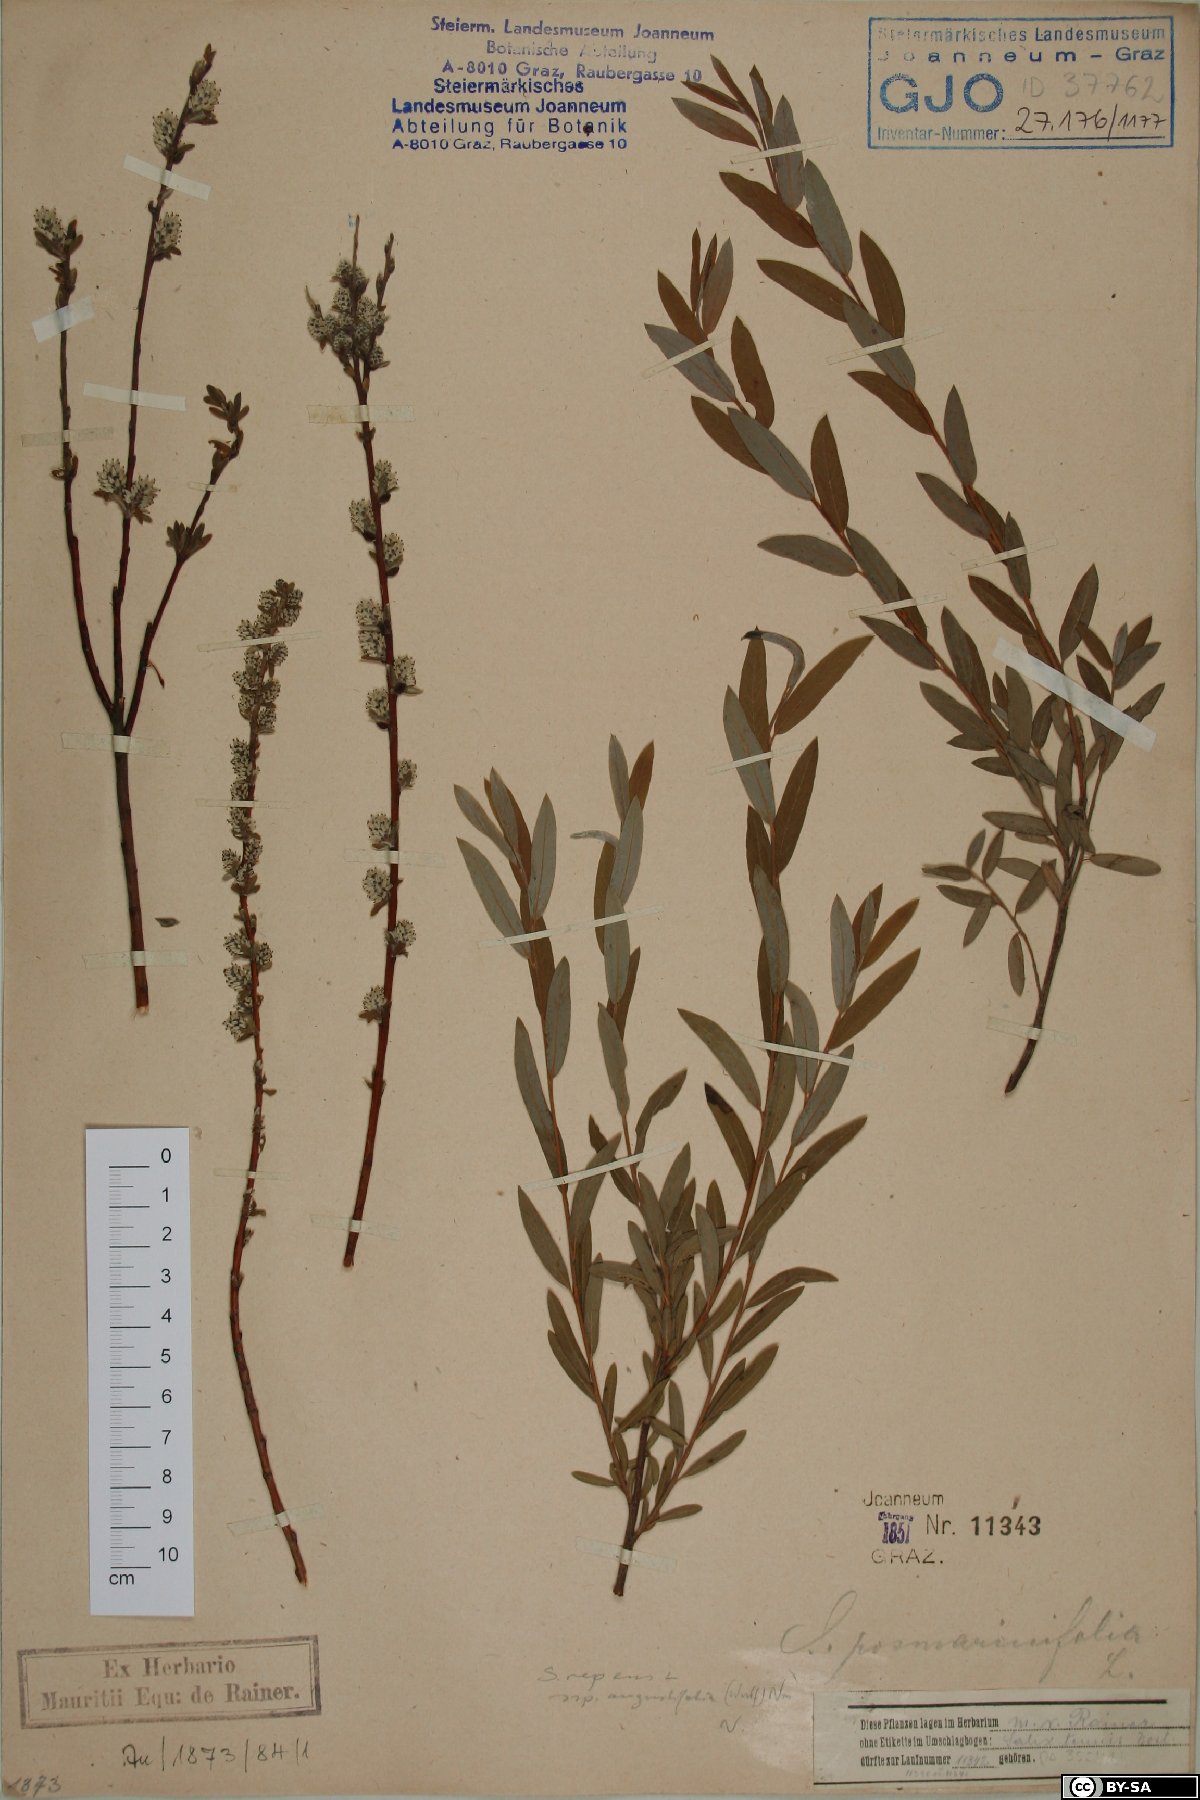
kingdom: Plantae
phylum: Tracheophyta
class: Magnoliopsida
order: Malpighiales
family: Salicaceae
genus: Salix
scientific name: Salix rosmarinifolia
